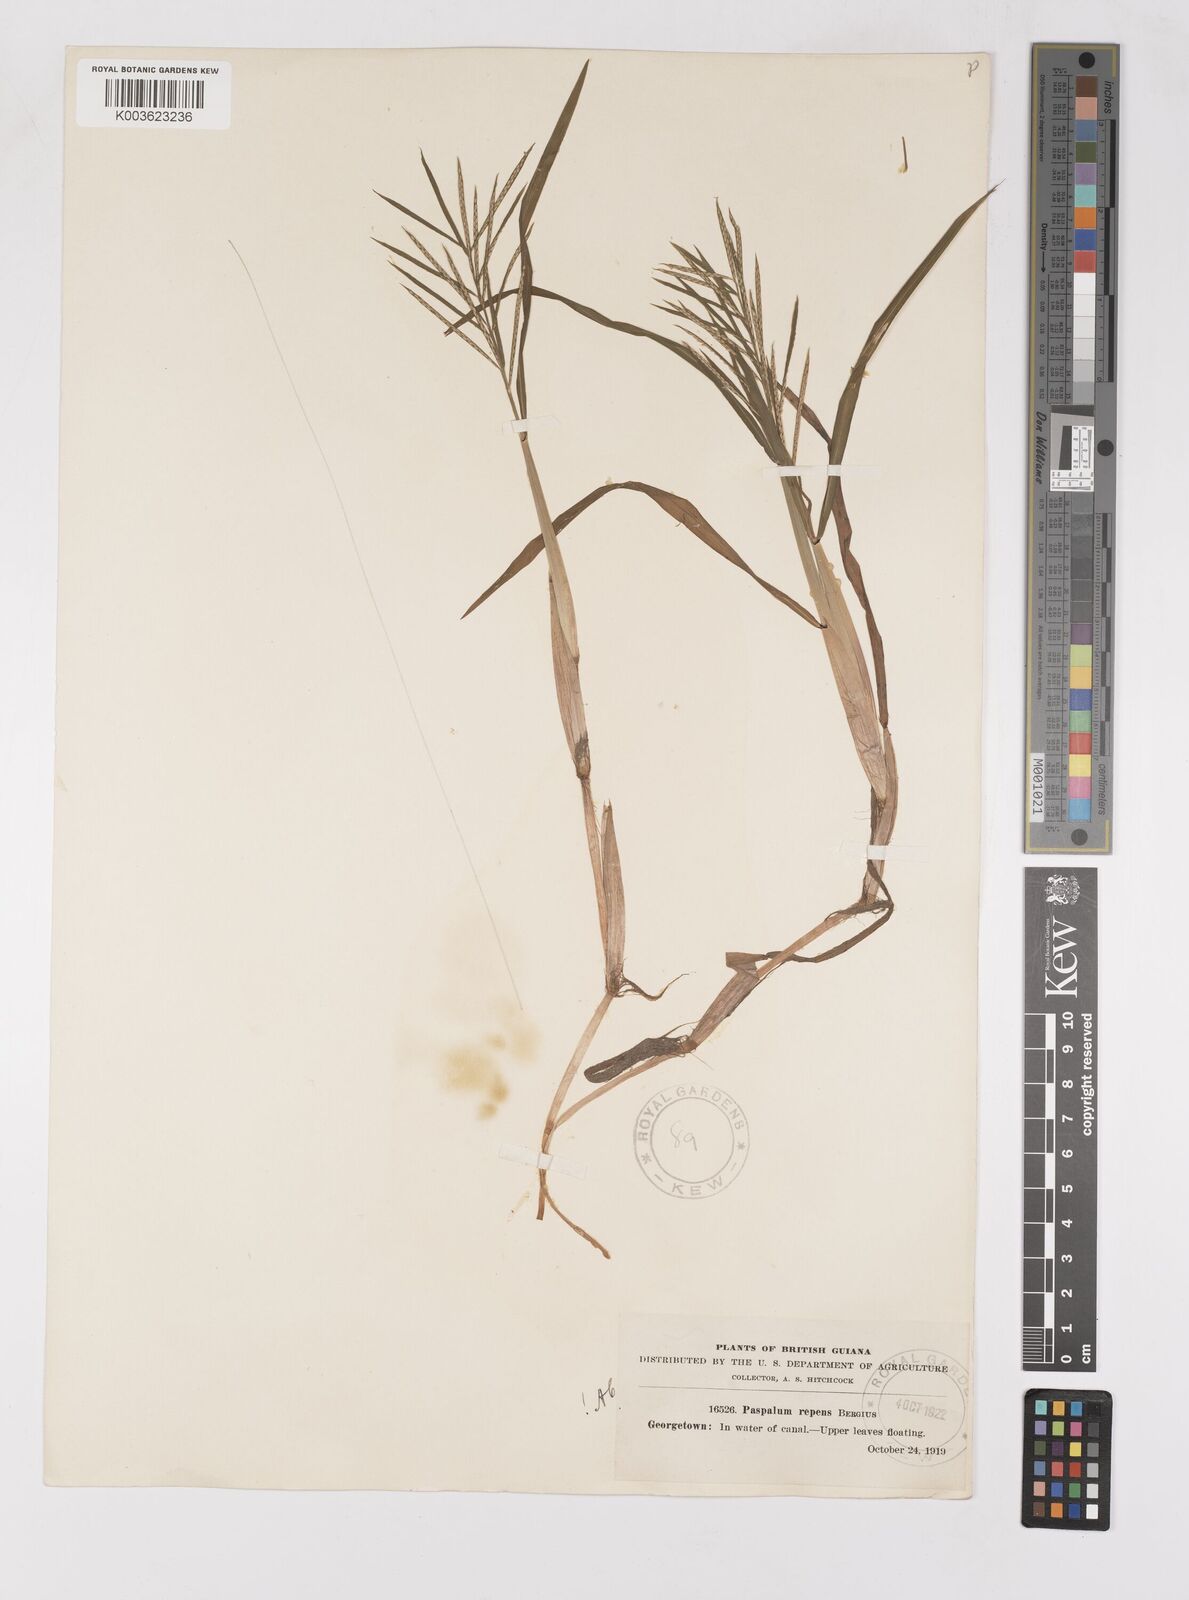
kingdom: Plantae
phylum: Tracheophyta
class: Liliopsida
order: Poales
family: Poaceae
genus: Paspalum
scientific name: Paspalum repens
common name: Water paspalum
